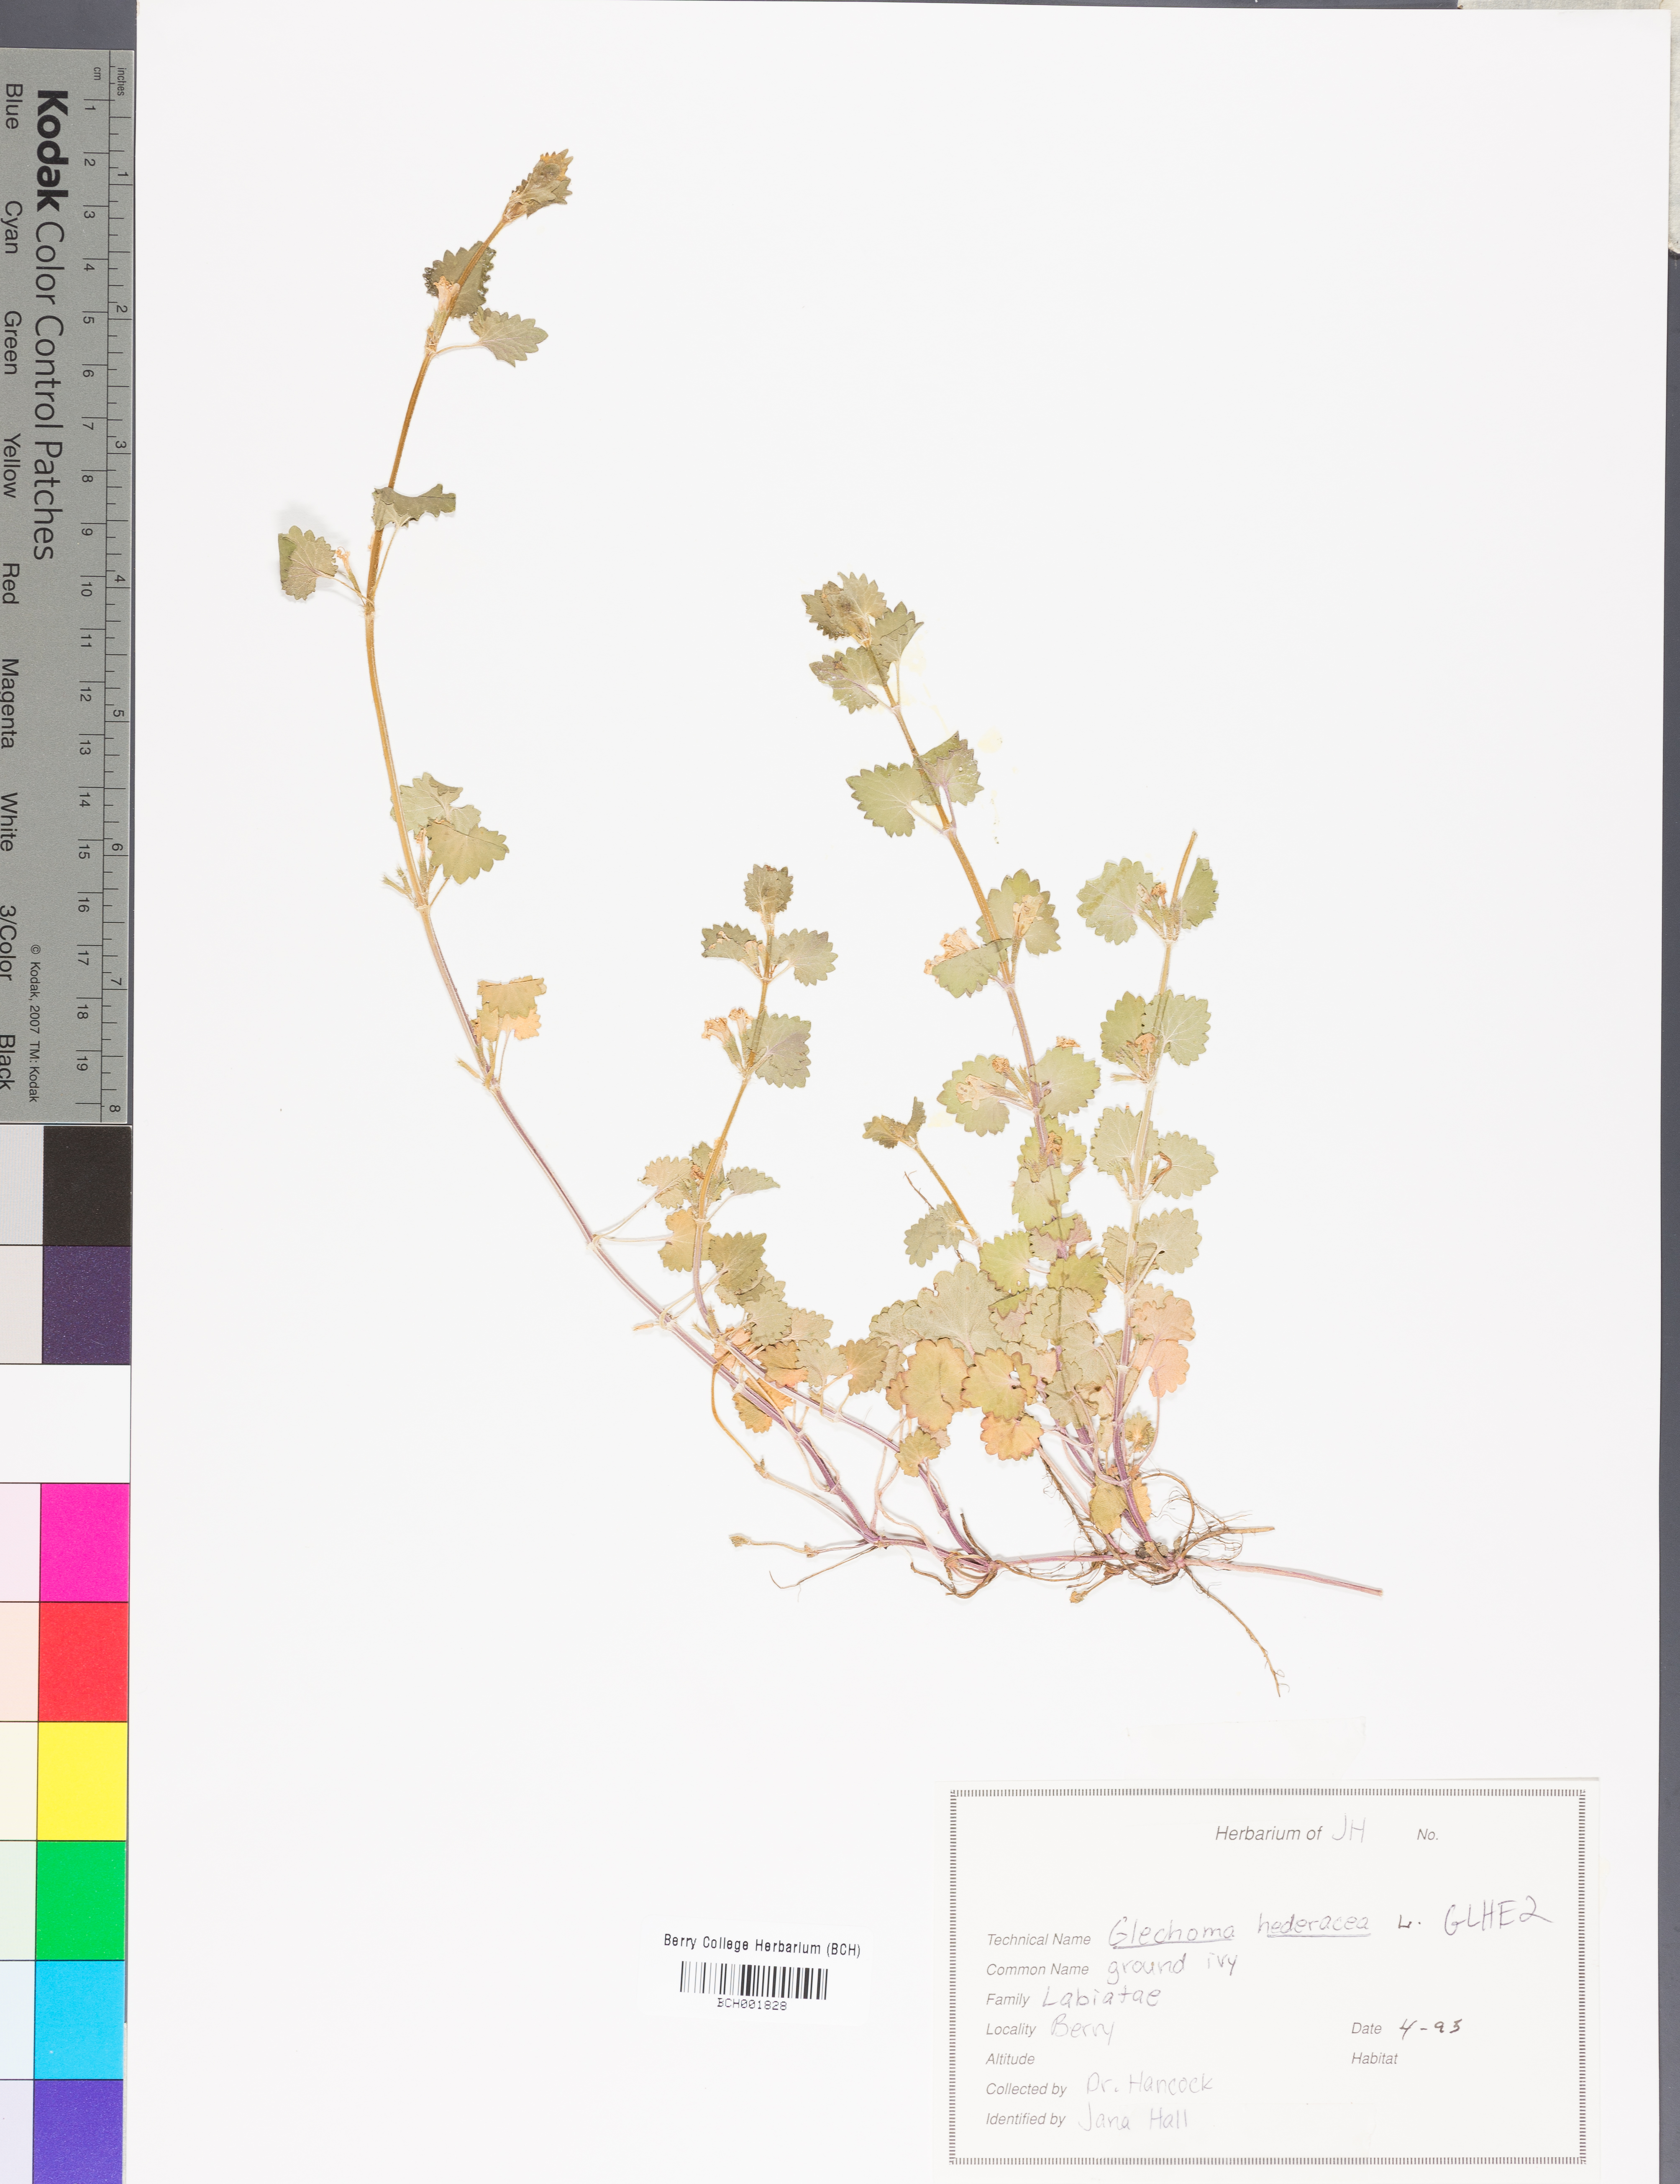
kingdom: Plantae
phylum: Tracheophyta
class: Magnoliopsida
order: Lamiales
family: Lamiaceae
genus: Glechoma
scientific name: Glechoma hederacea
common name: Ground ivy
